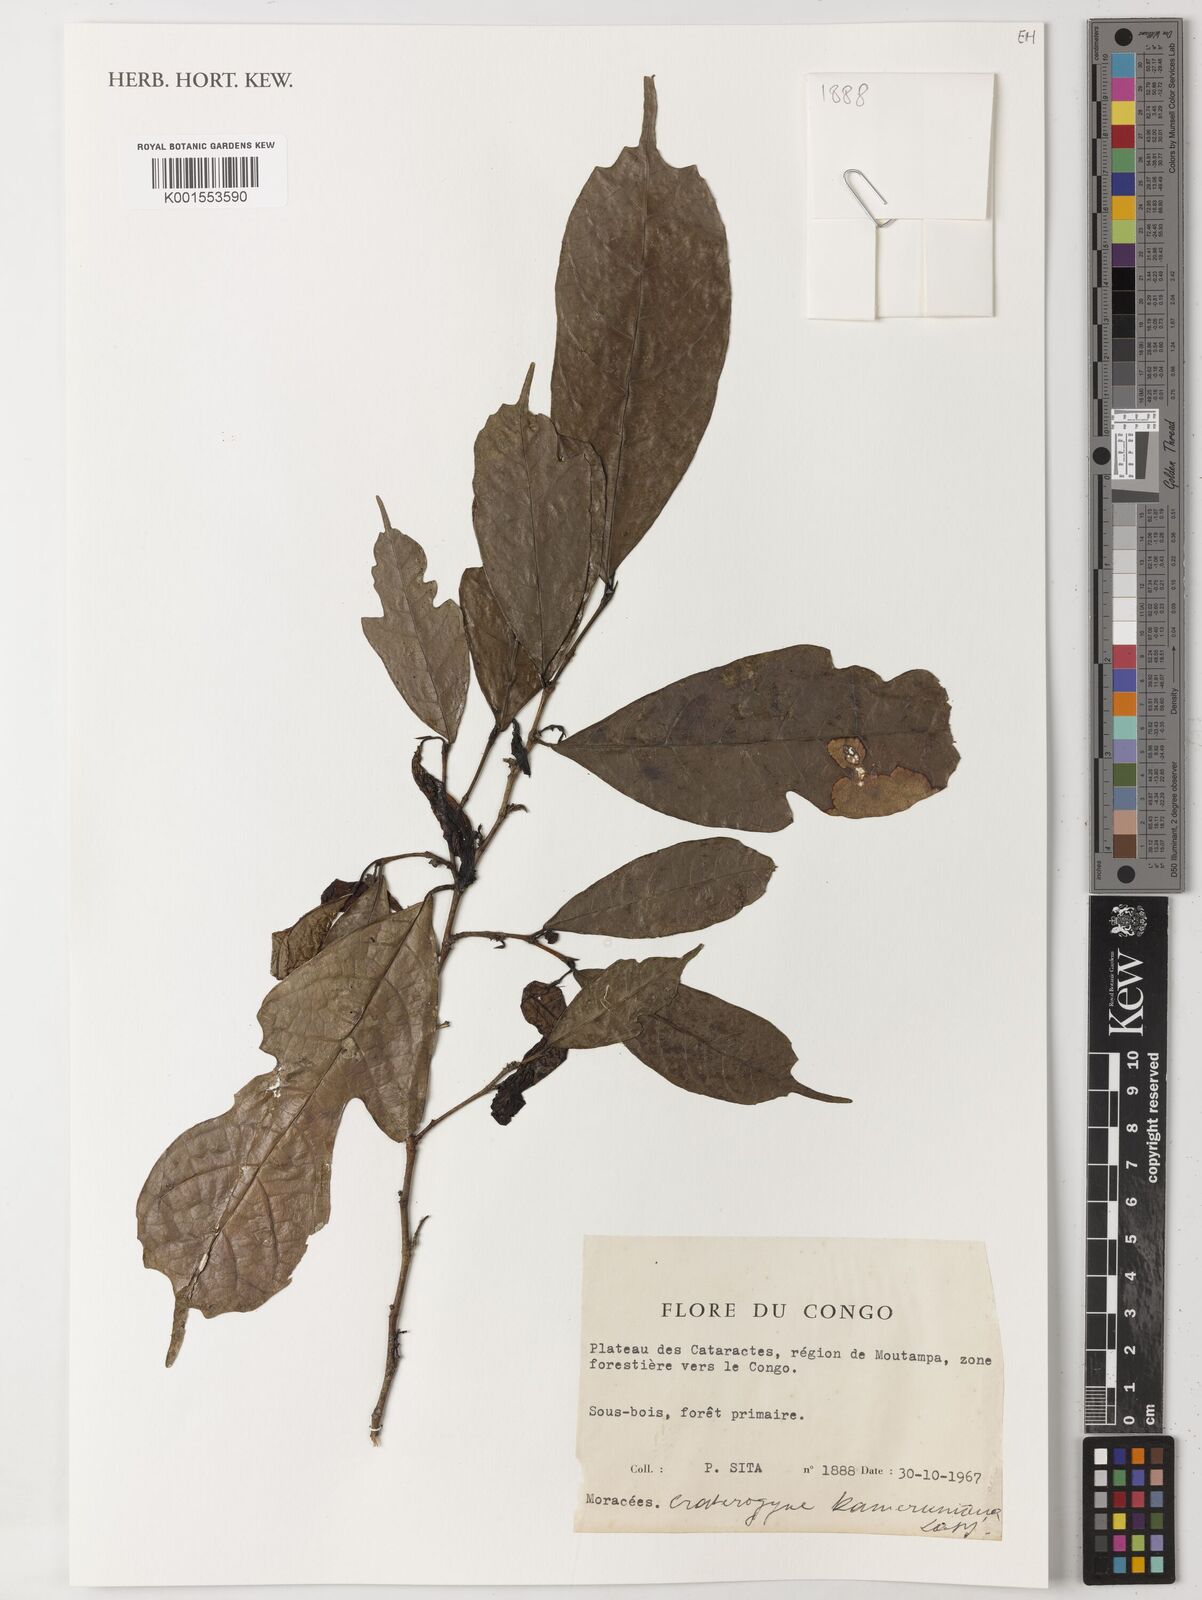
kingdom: Plantae
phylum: Tracheophyta
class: Magnoliopsida
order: Rosales
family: Moraceae
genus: Dorstenia
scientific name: Dorstenia kameruniana
